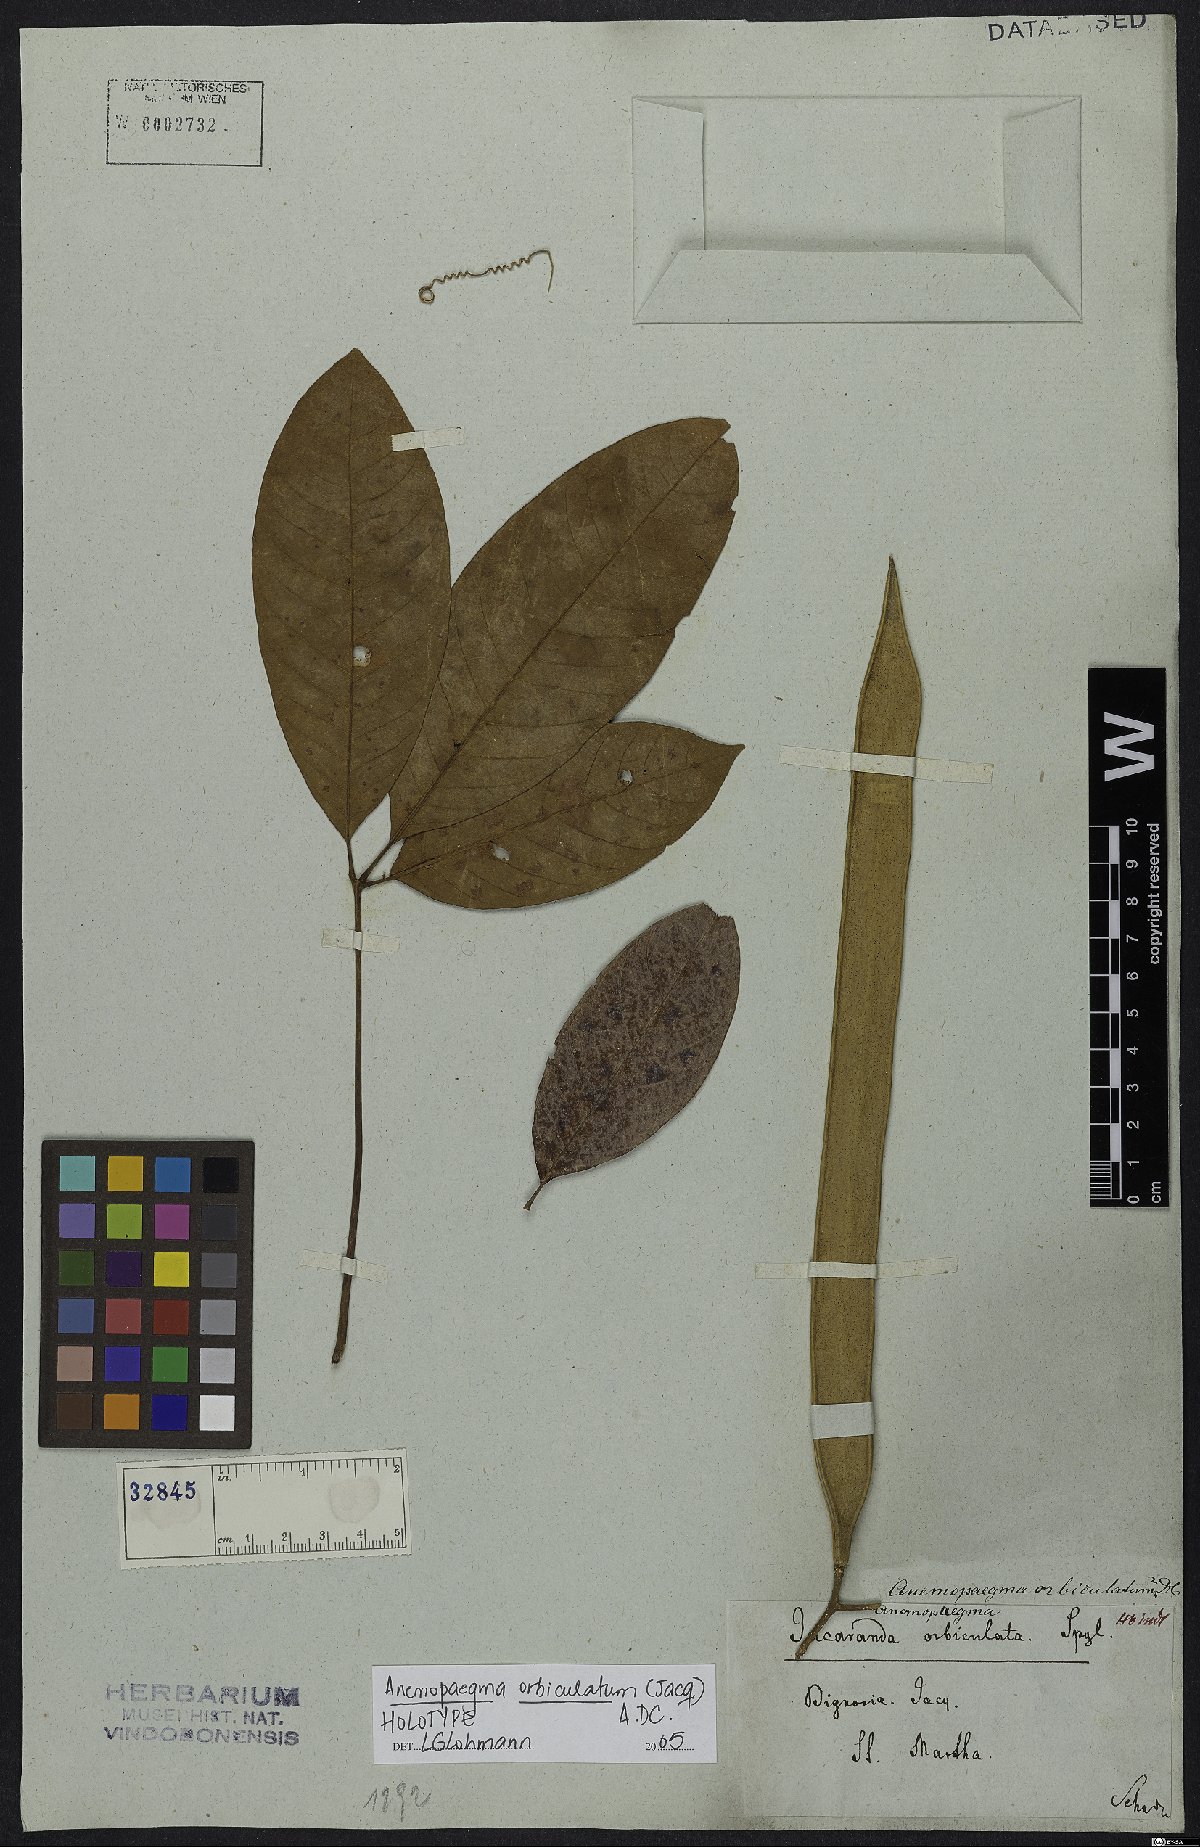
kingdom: Plantae
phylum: Tracheophyta
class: Magnoliopsida
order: Lamiales
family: Bignoniaceae
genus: Anemopaegma
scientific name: Anemopaegma orbiculatum
